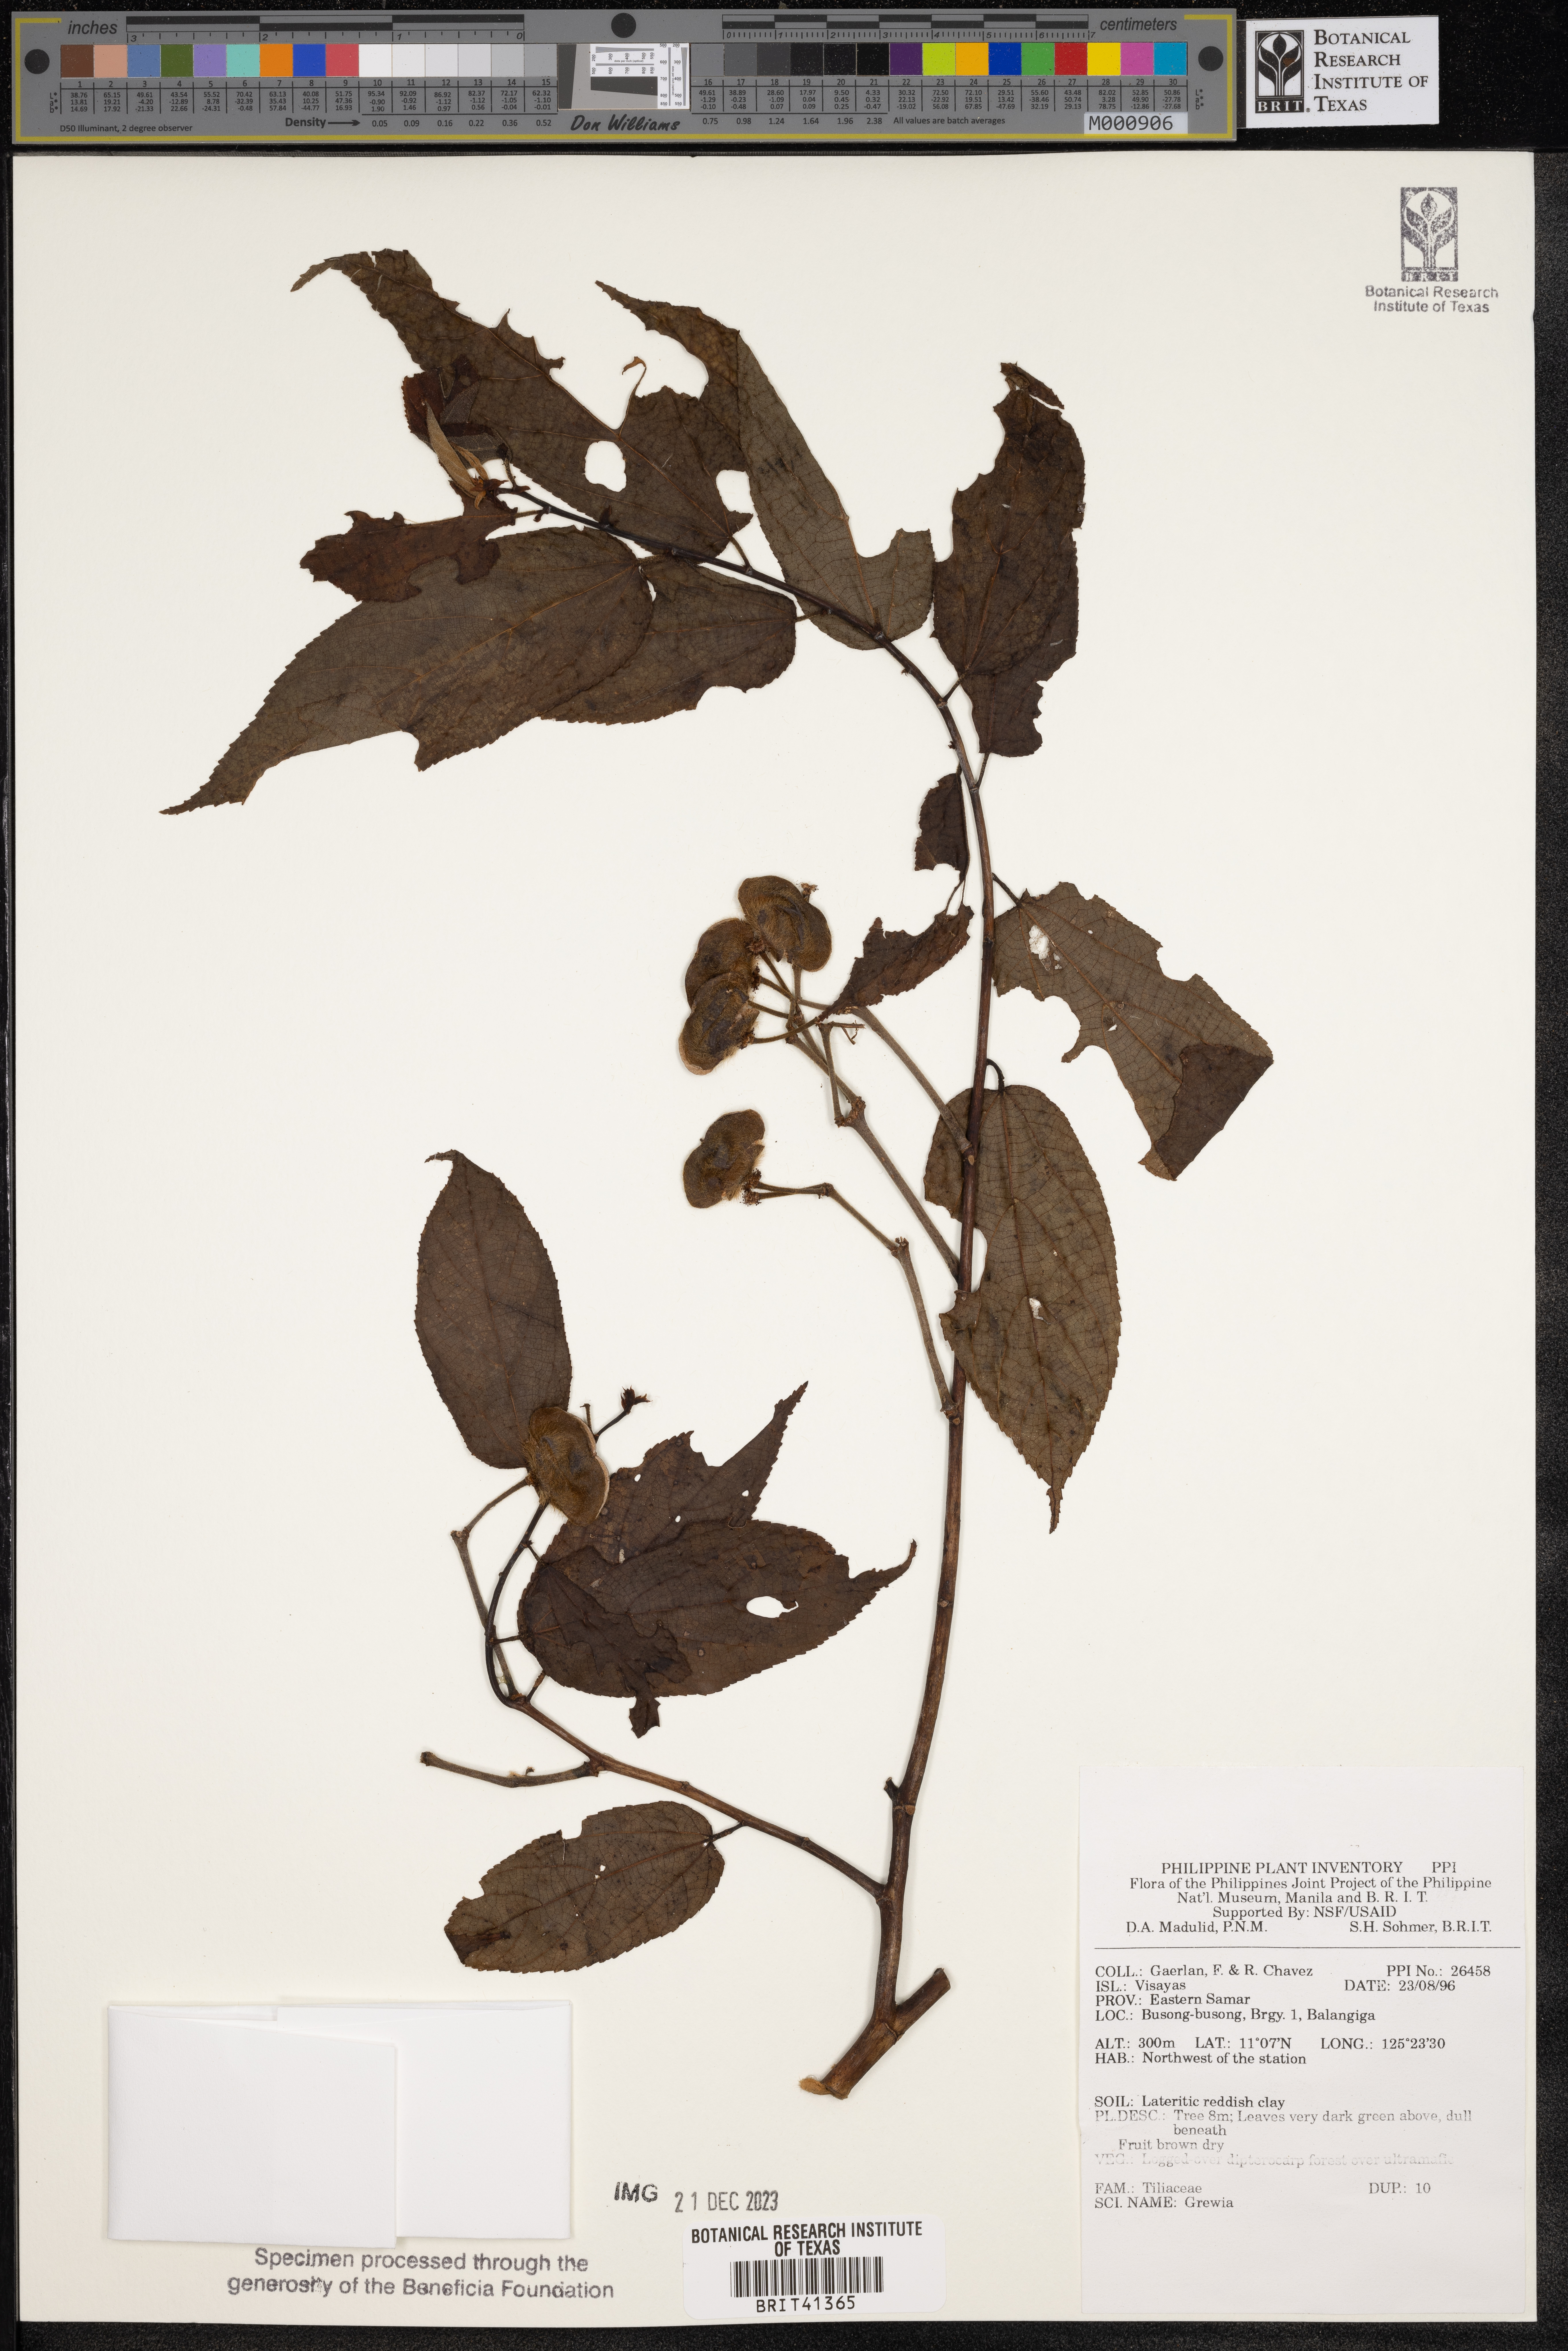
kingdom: Plantae
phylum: Tracheophyta
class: Magnoliopsida
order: Malvales
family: Malvaceae
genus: Grewia
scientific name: Grewia
